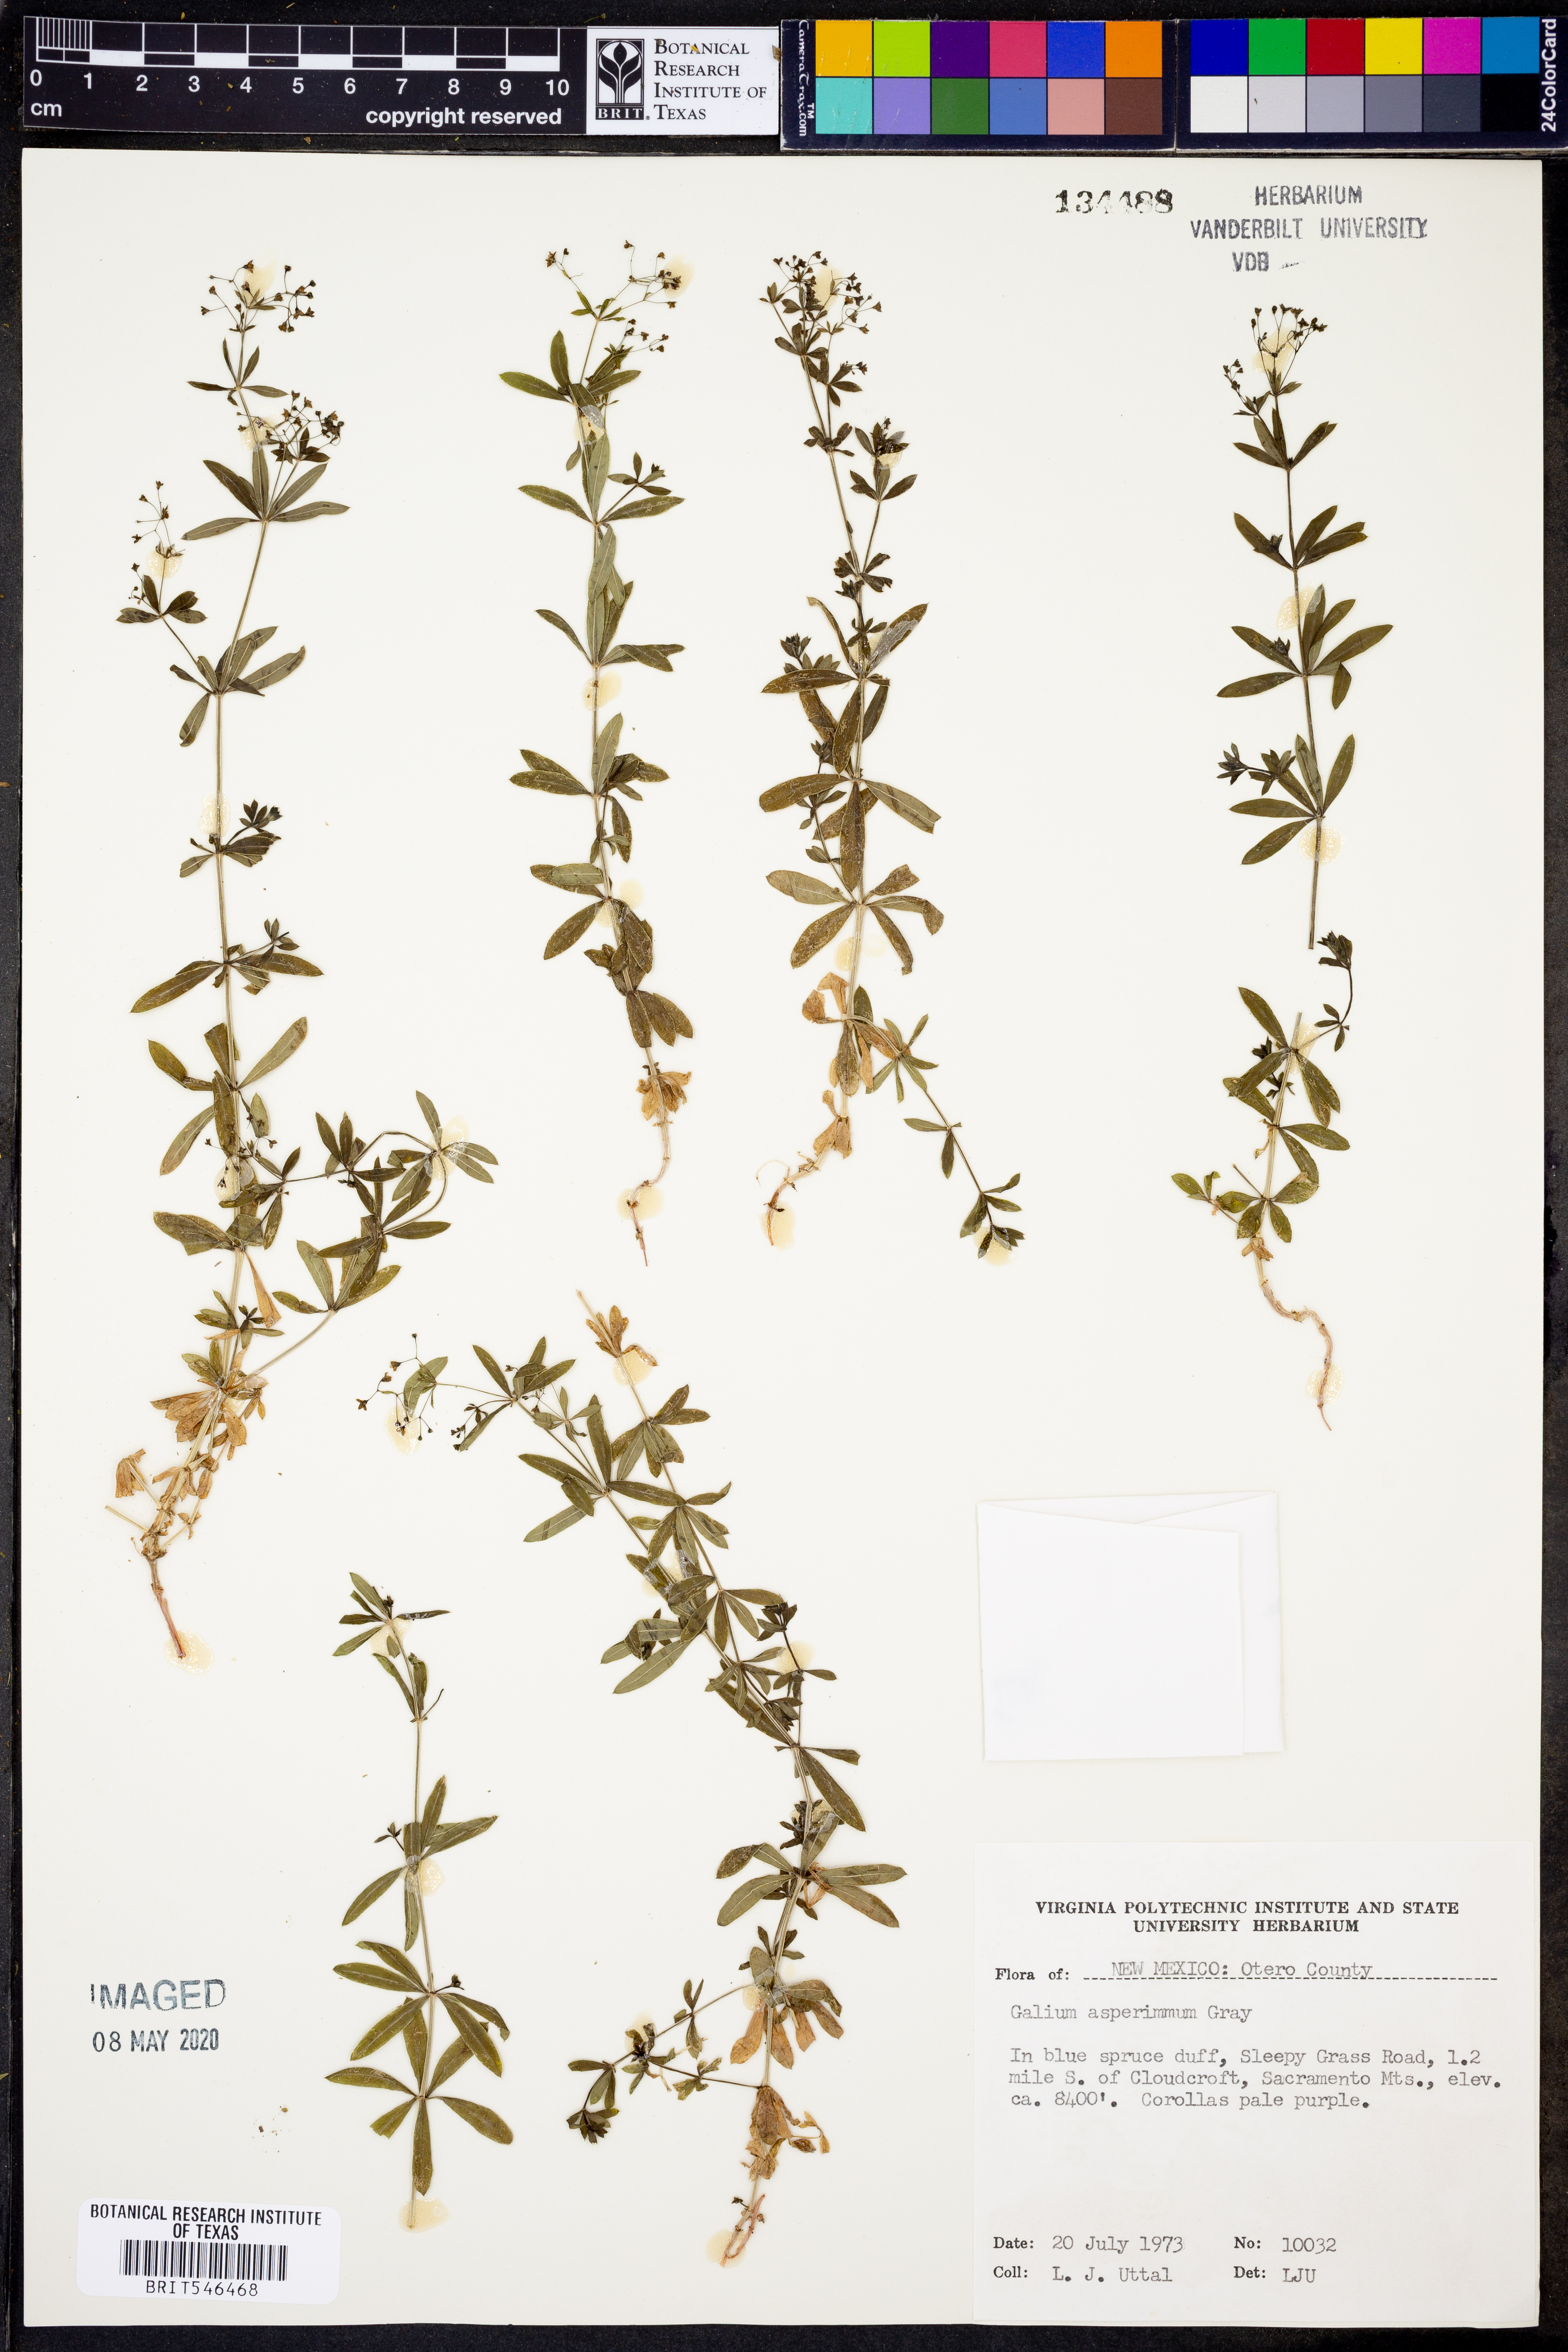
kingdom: Plantae
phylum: Tracheophyta
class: Magnoliopsida
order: Gentianales
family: Rubiaceae
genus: Galium
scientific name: Galium mexicanum
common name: Mexican bedstraw
